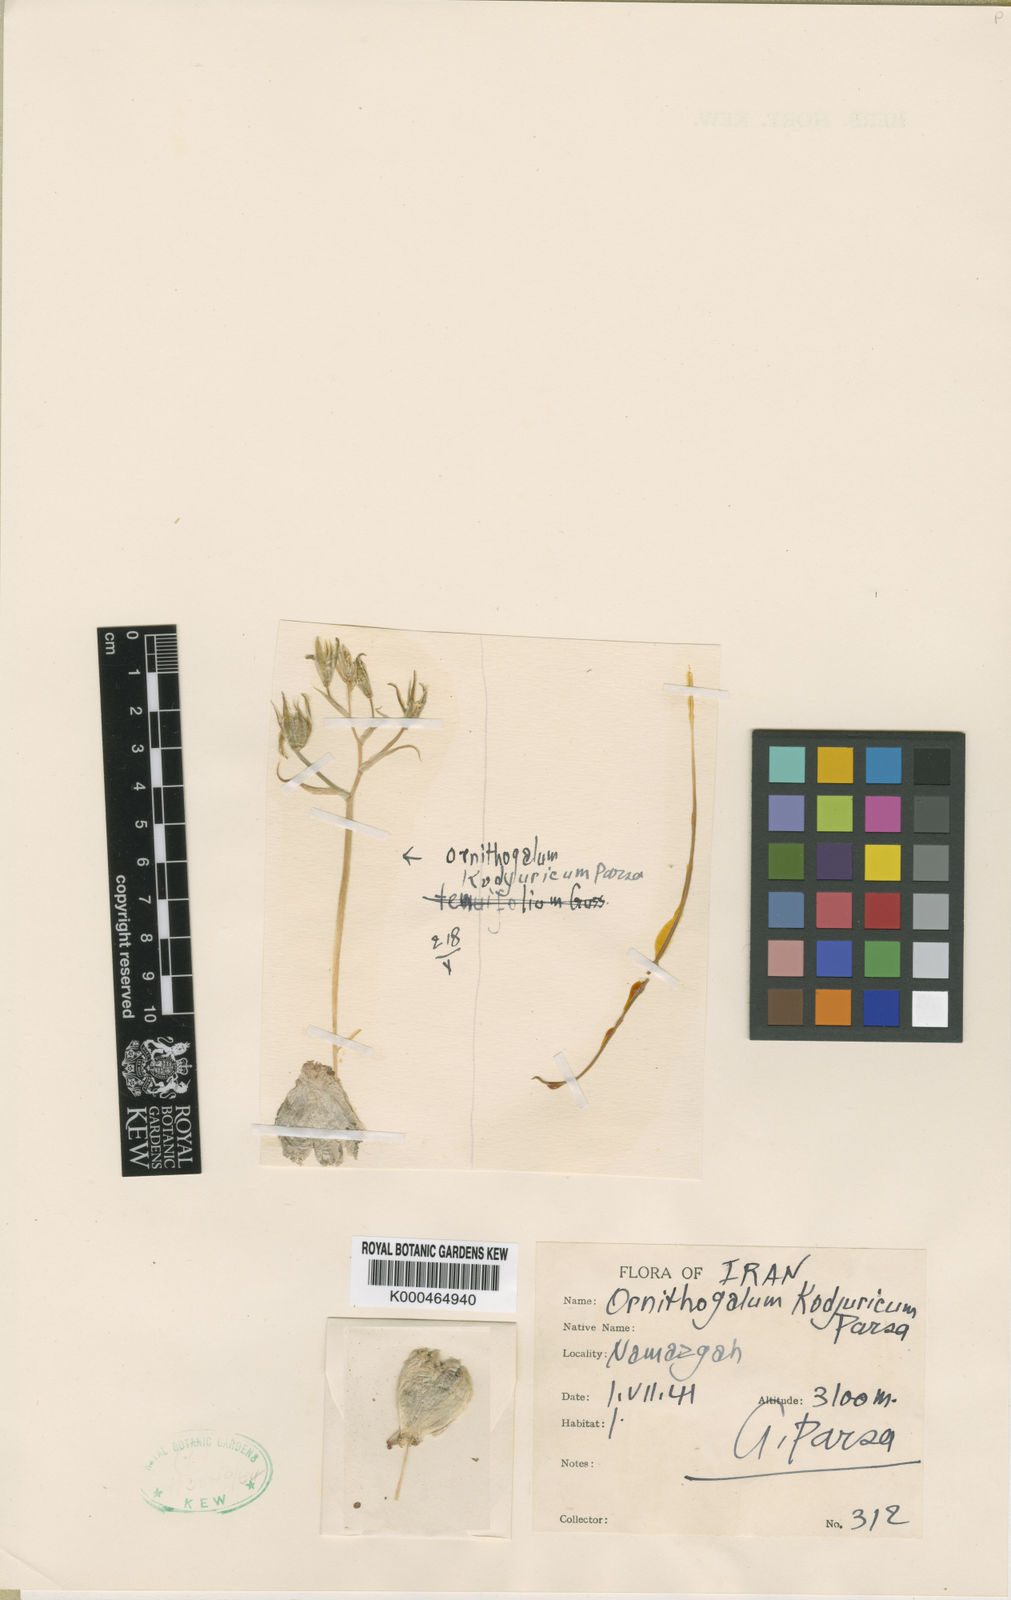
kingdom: Plantae
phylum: Tracheophyta
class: Liliopsida
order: Asparagales
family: Asparagaceae
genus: Ornithogalum
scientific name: Ornithogalum
